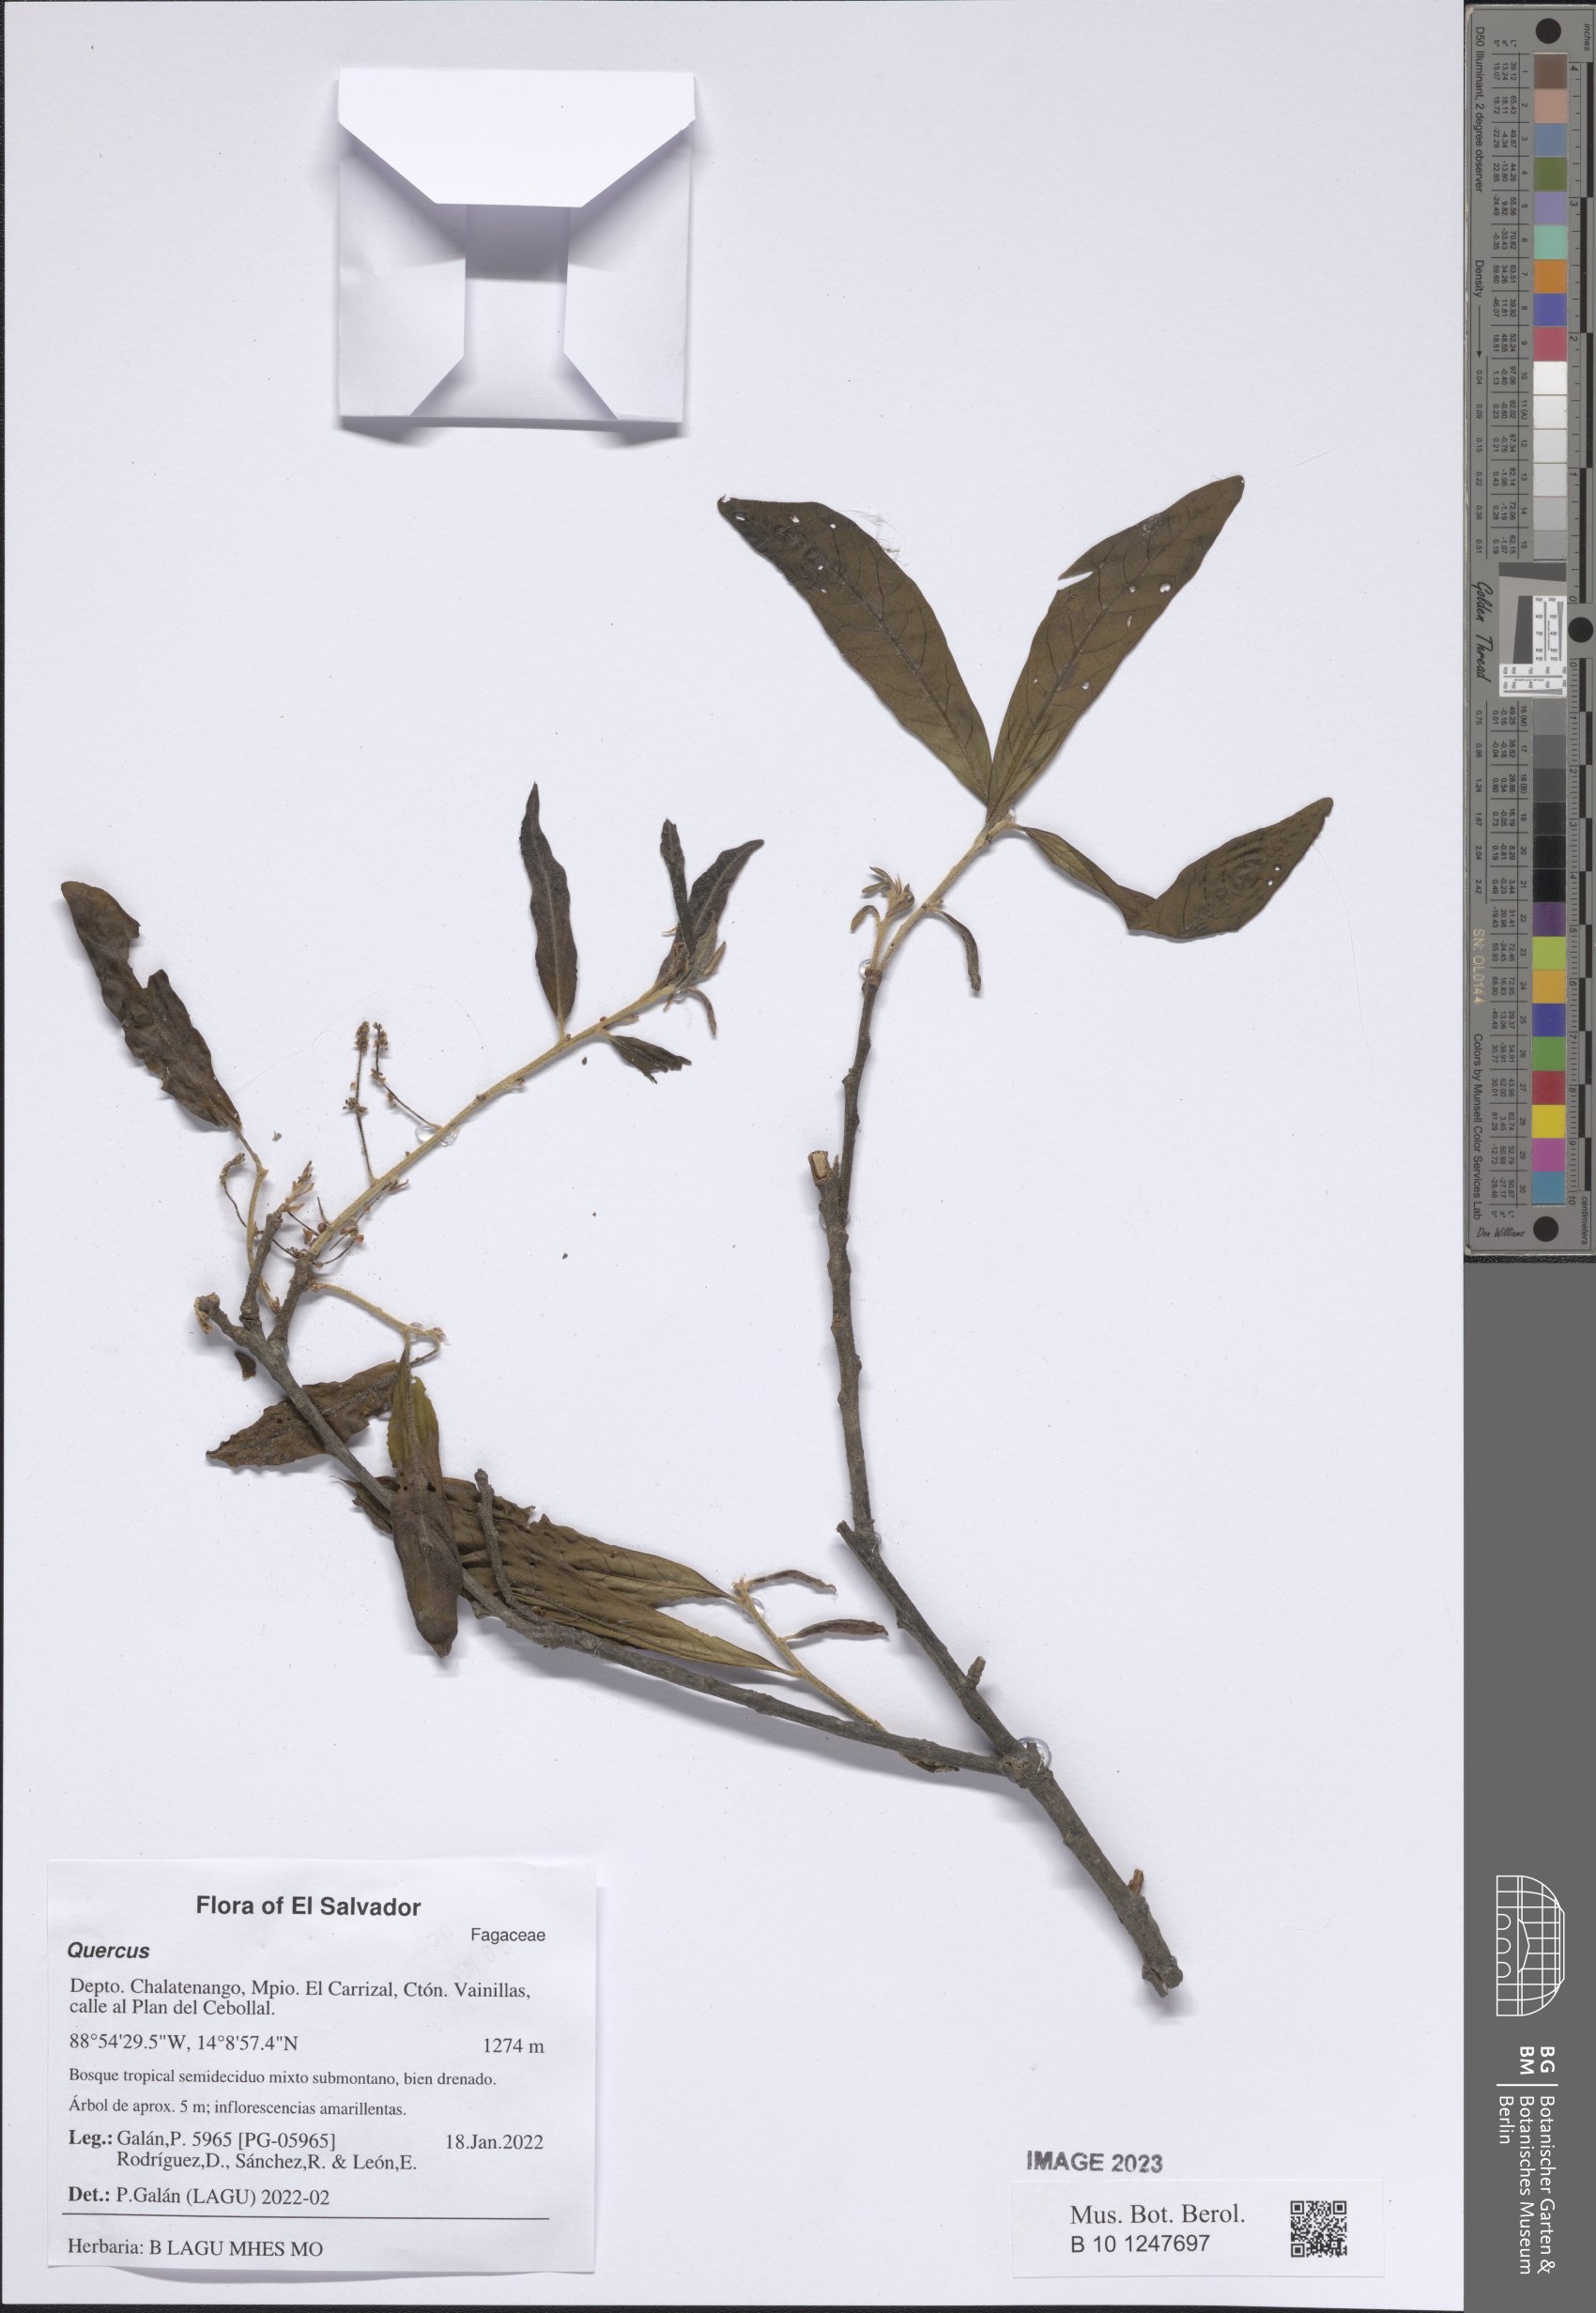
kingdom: Plantae
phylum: Tracheophyta
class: Magnoliopsida
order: Fagales
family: Fagaceae
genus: Quercus
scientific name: Quercus
